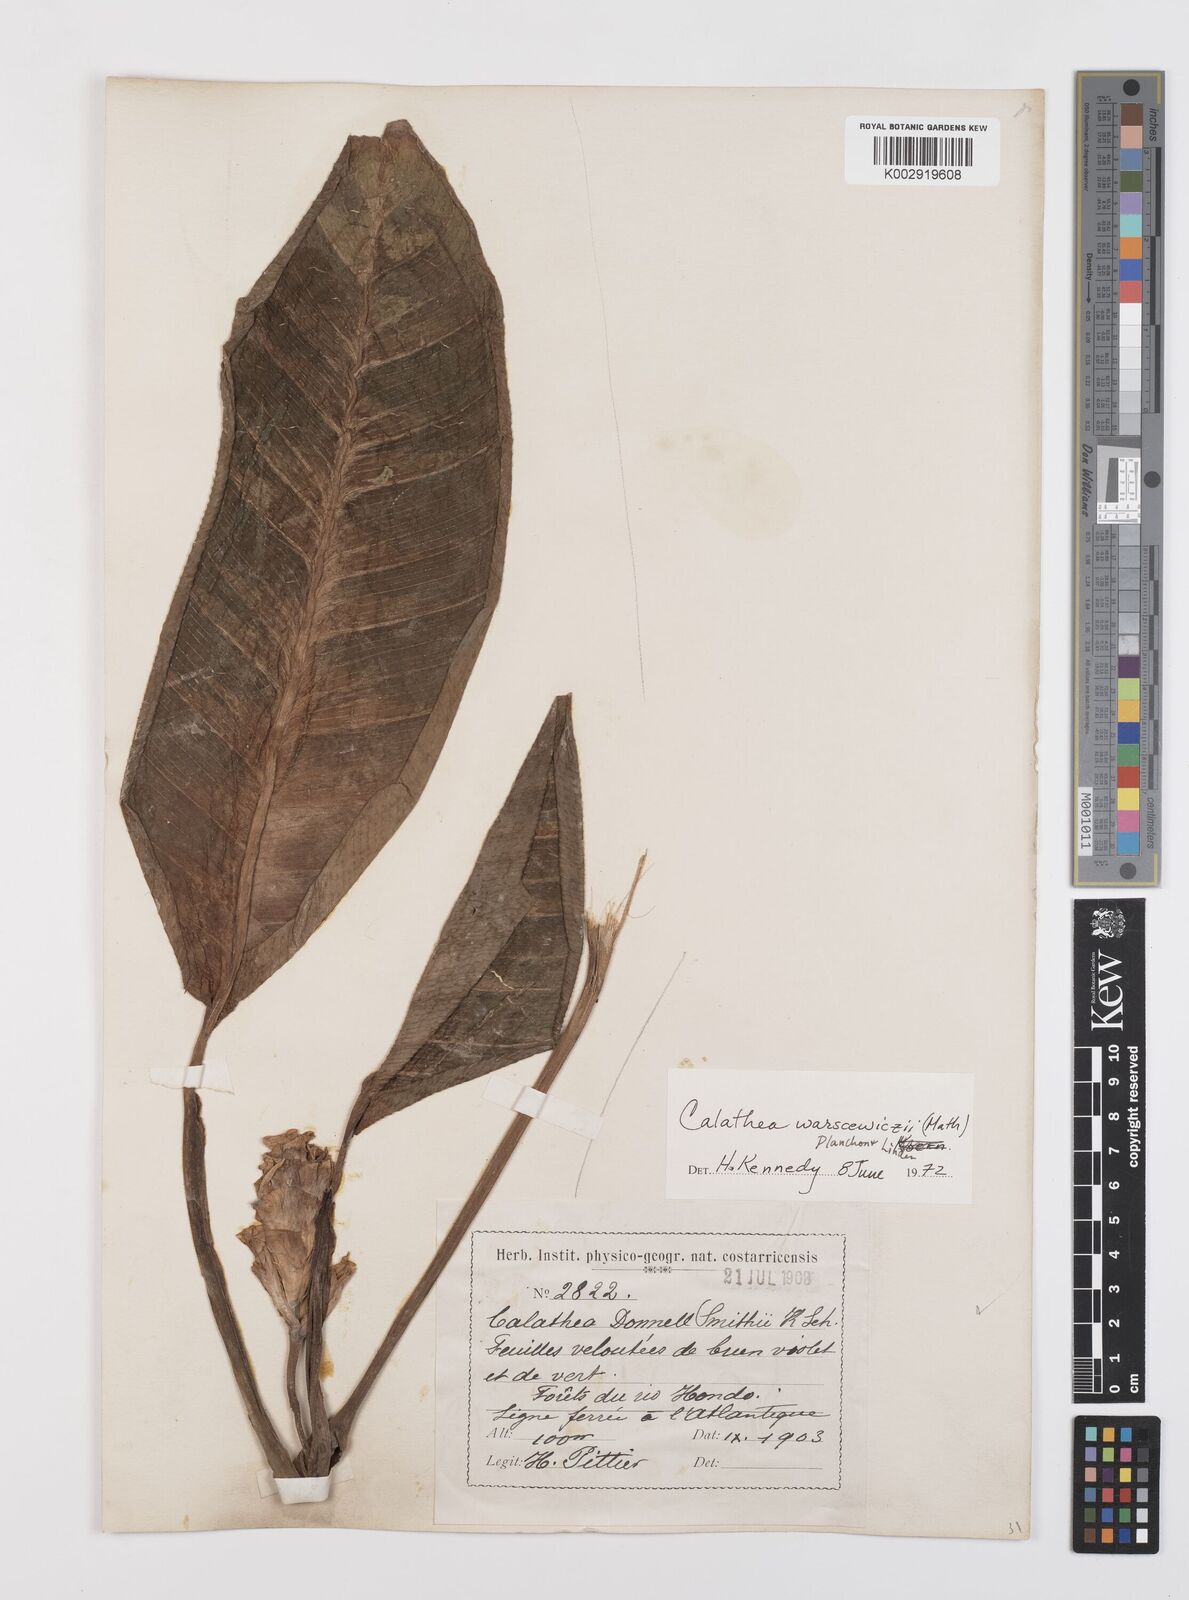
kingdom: Plantae
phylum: Tracheophyta
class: Liliopsida
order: Zingiberales
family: Marantaceae
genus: Goeppertia
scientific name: Goeppertia warszewiczii
